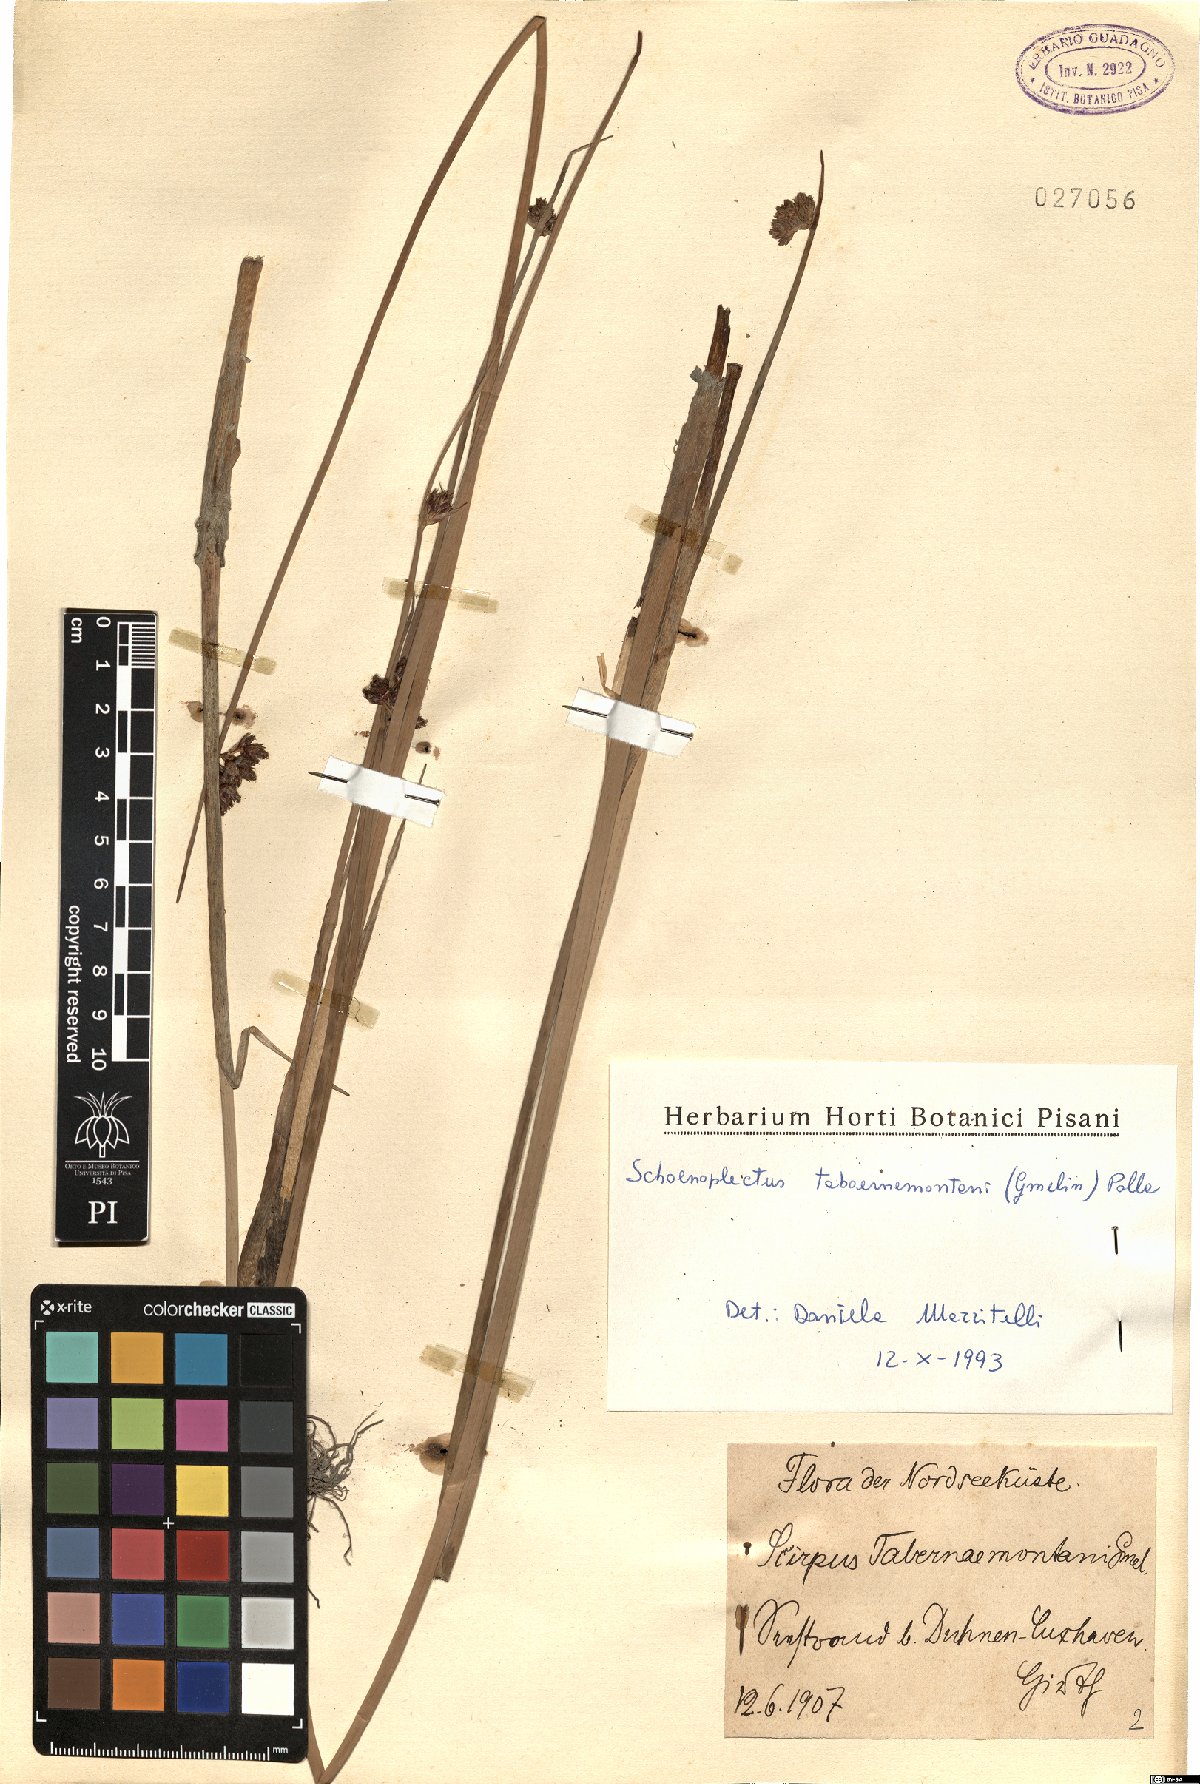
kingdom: Plantae
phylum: Tracheophyta
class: Liliopsida
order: Poales
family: Cyperaceae
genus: Schoenoplectus
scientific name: Schoenoplectus tabernaemontani
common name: Grey club-rush
